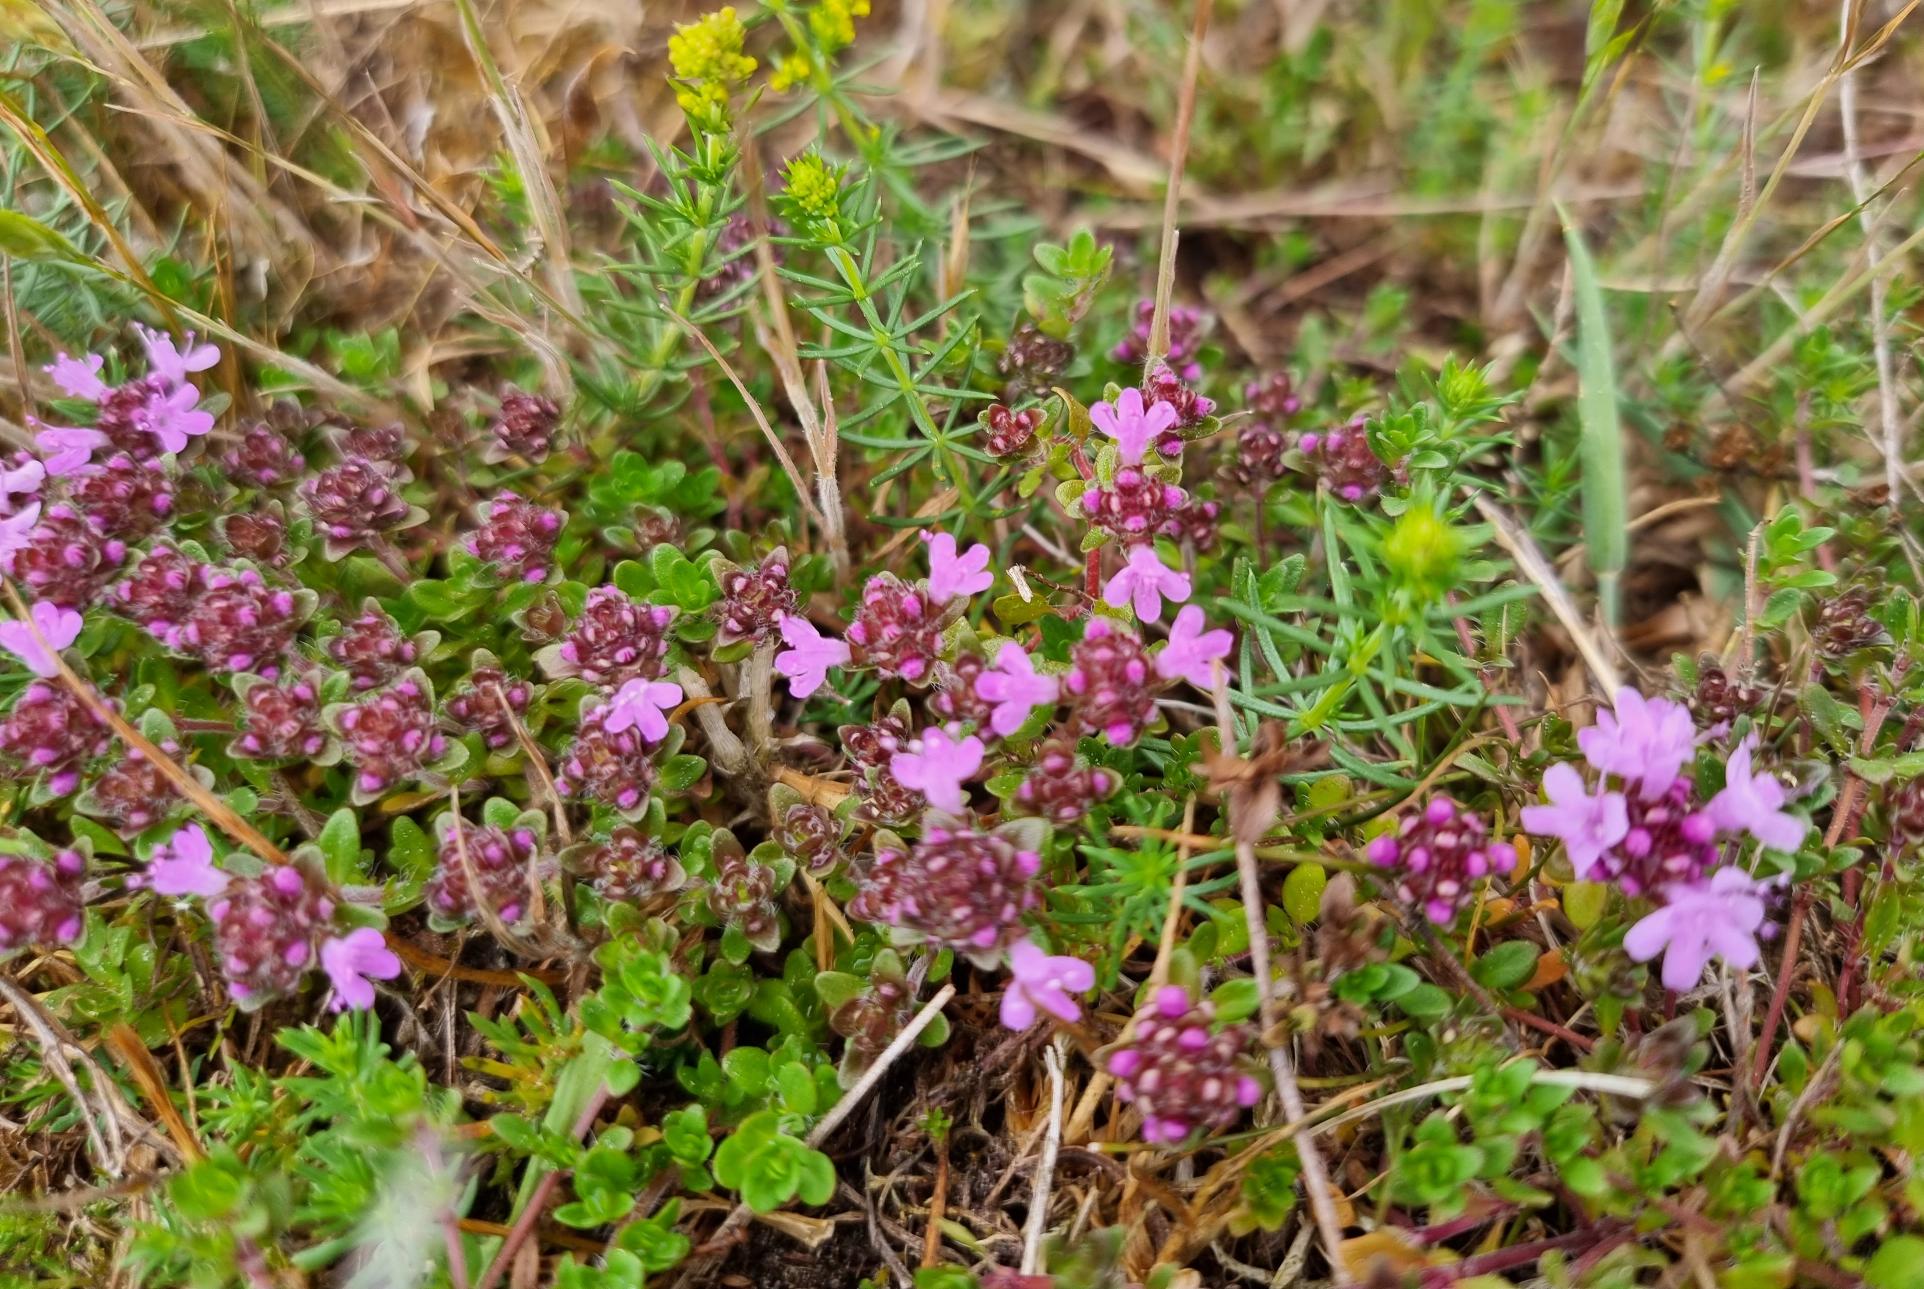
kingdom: Plantae
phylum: Tracheophyta
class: Magnoliopsida
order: Lamiales
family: Lamiaceae
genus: Thymus
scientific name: Thymus pulegioides
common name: Bredbladet timian
